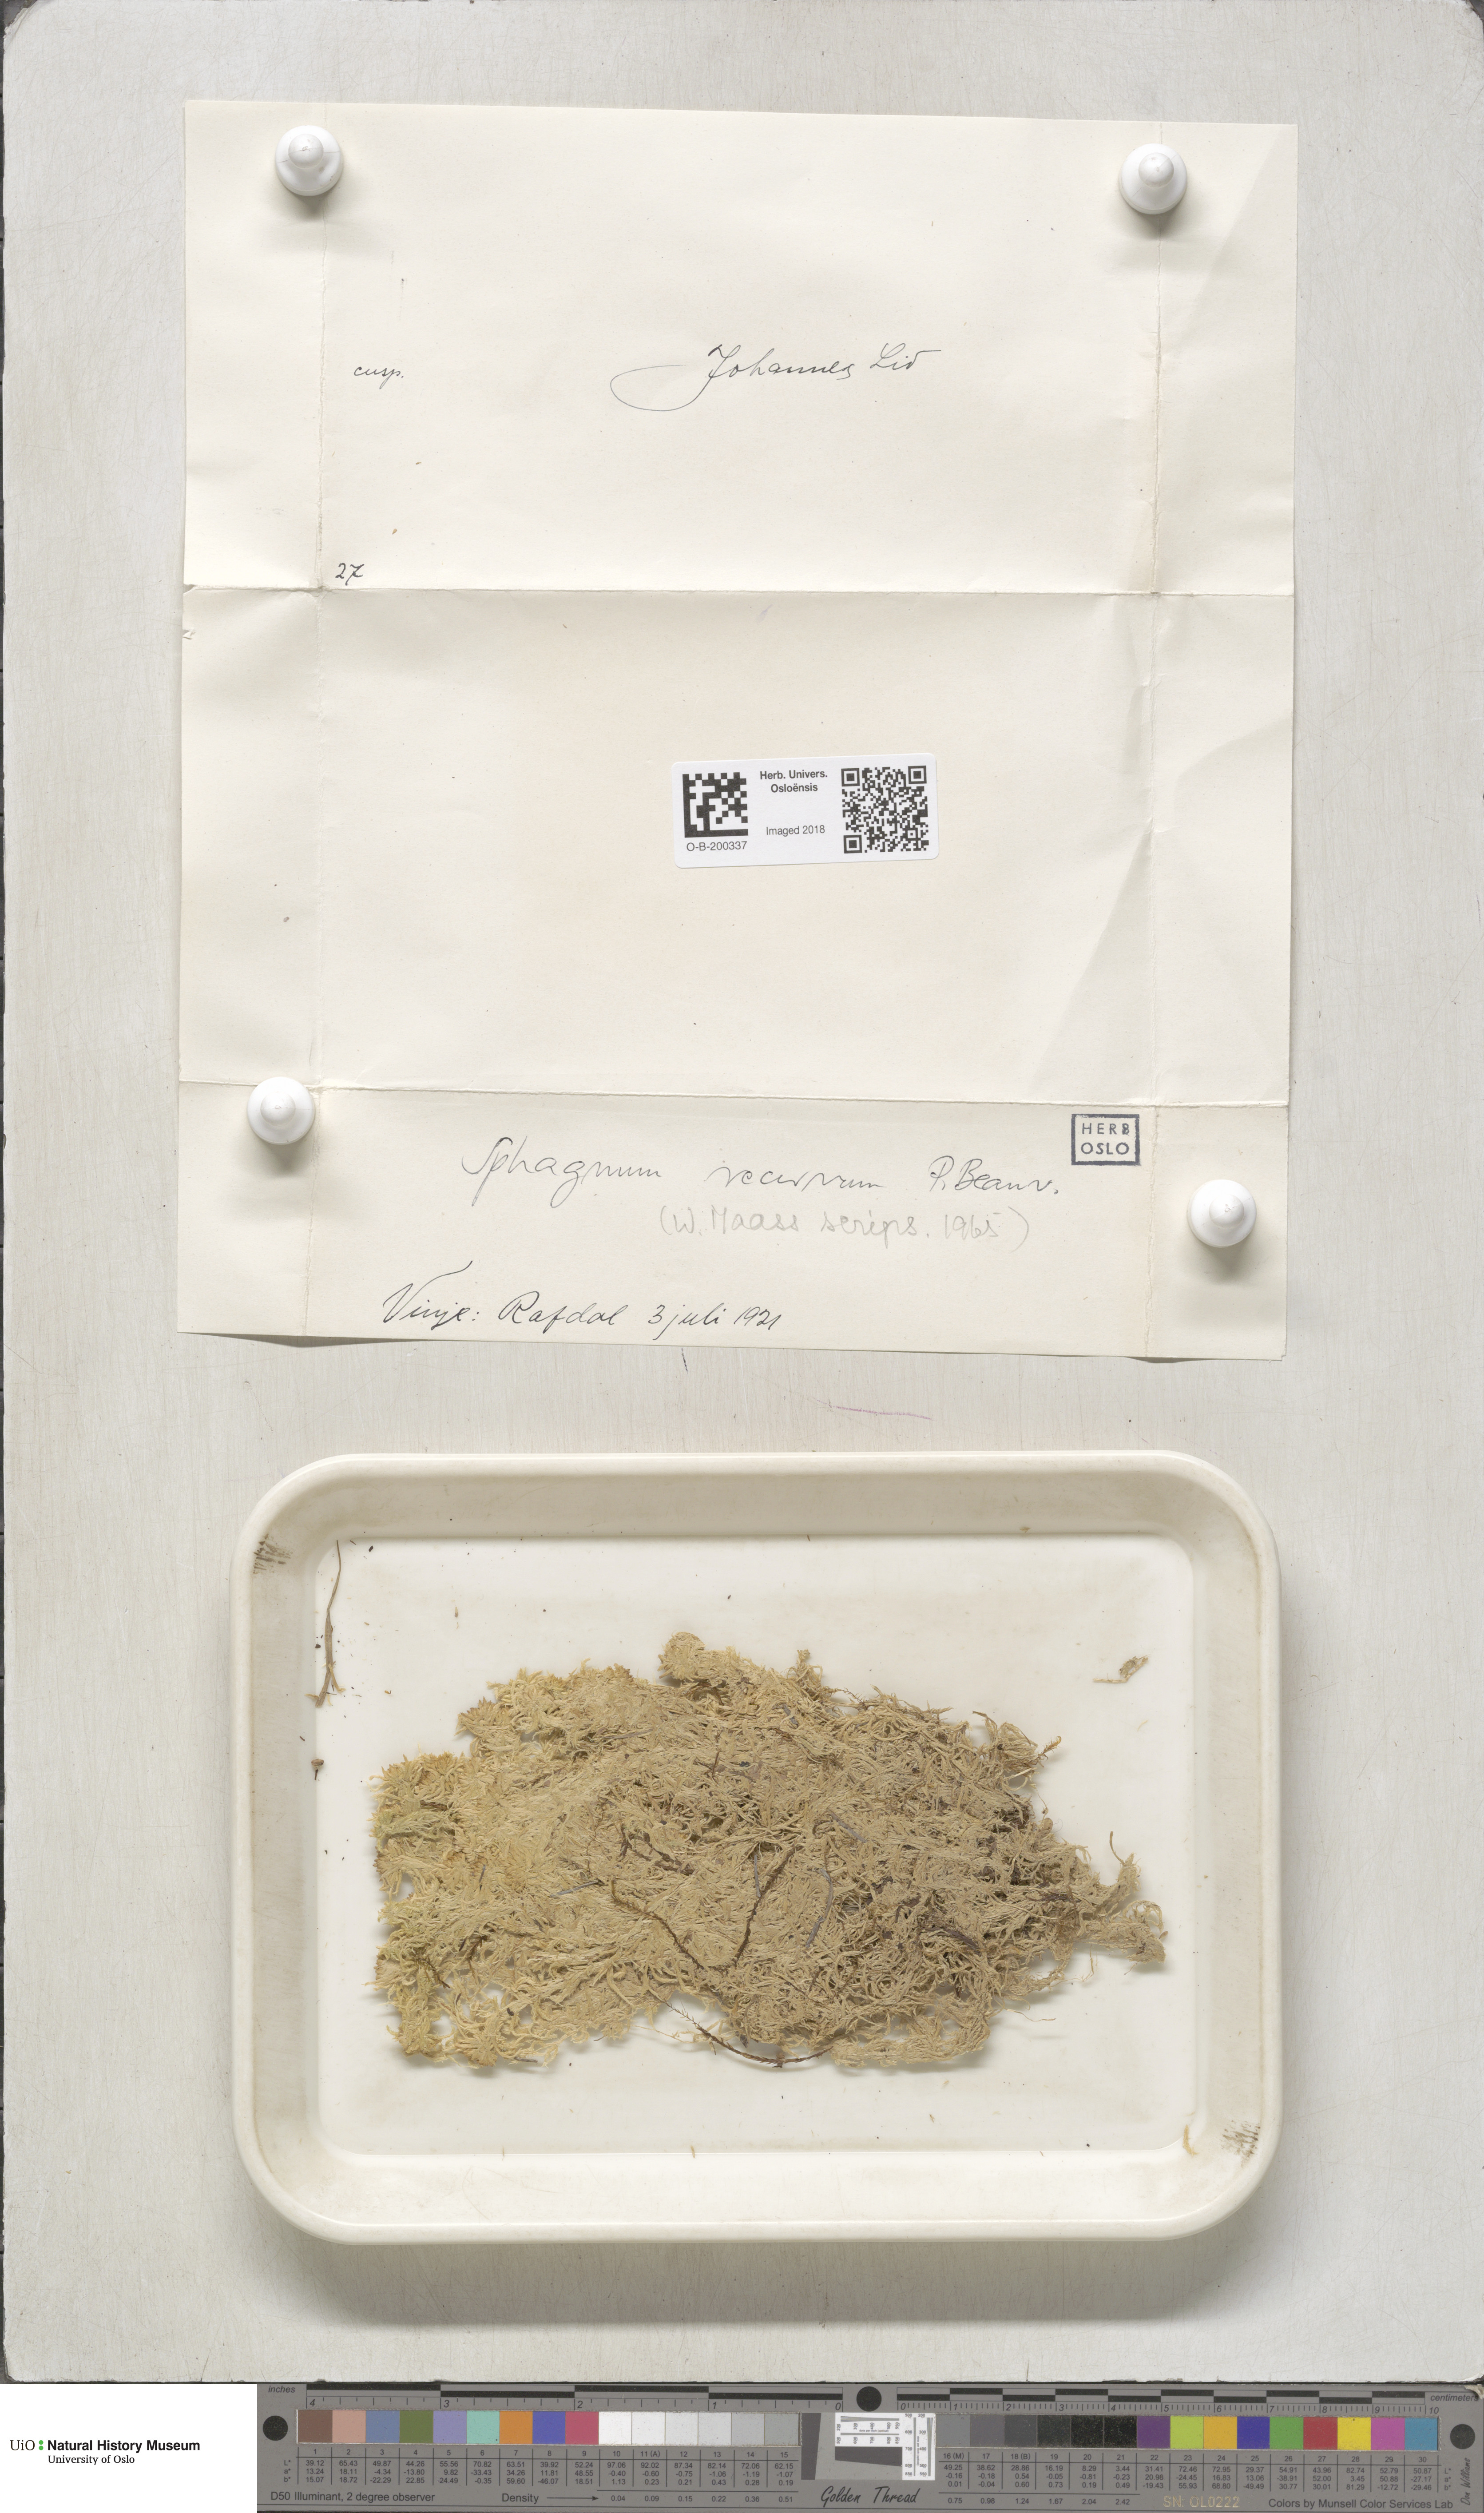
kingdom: Plantae
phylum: Bryophyta
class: Sphagnopsida
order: Sphagnales
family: Sphagnaceae
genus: Sphagnum
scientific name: Sphagnum fallax
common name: Flat-top peat moss
